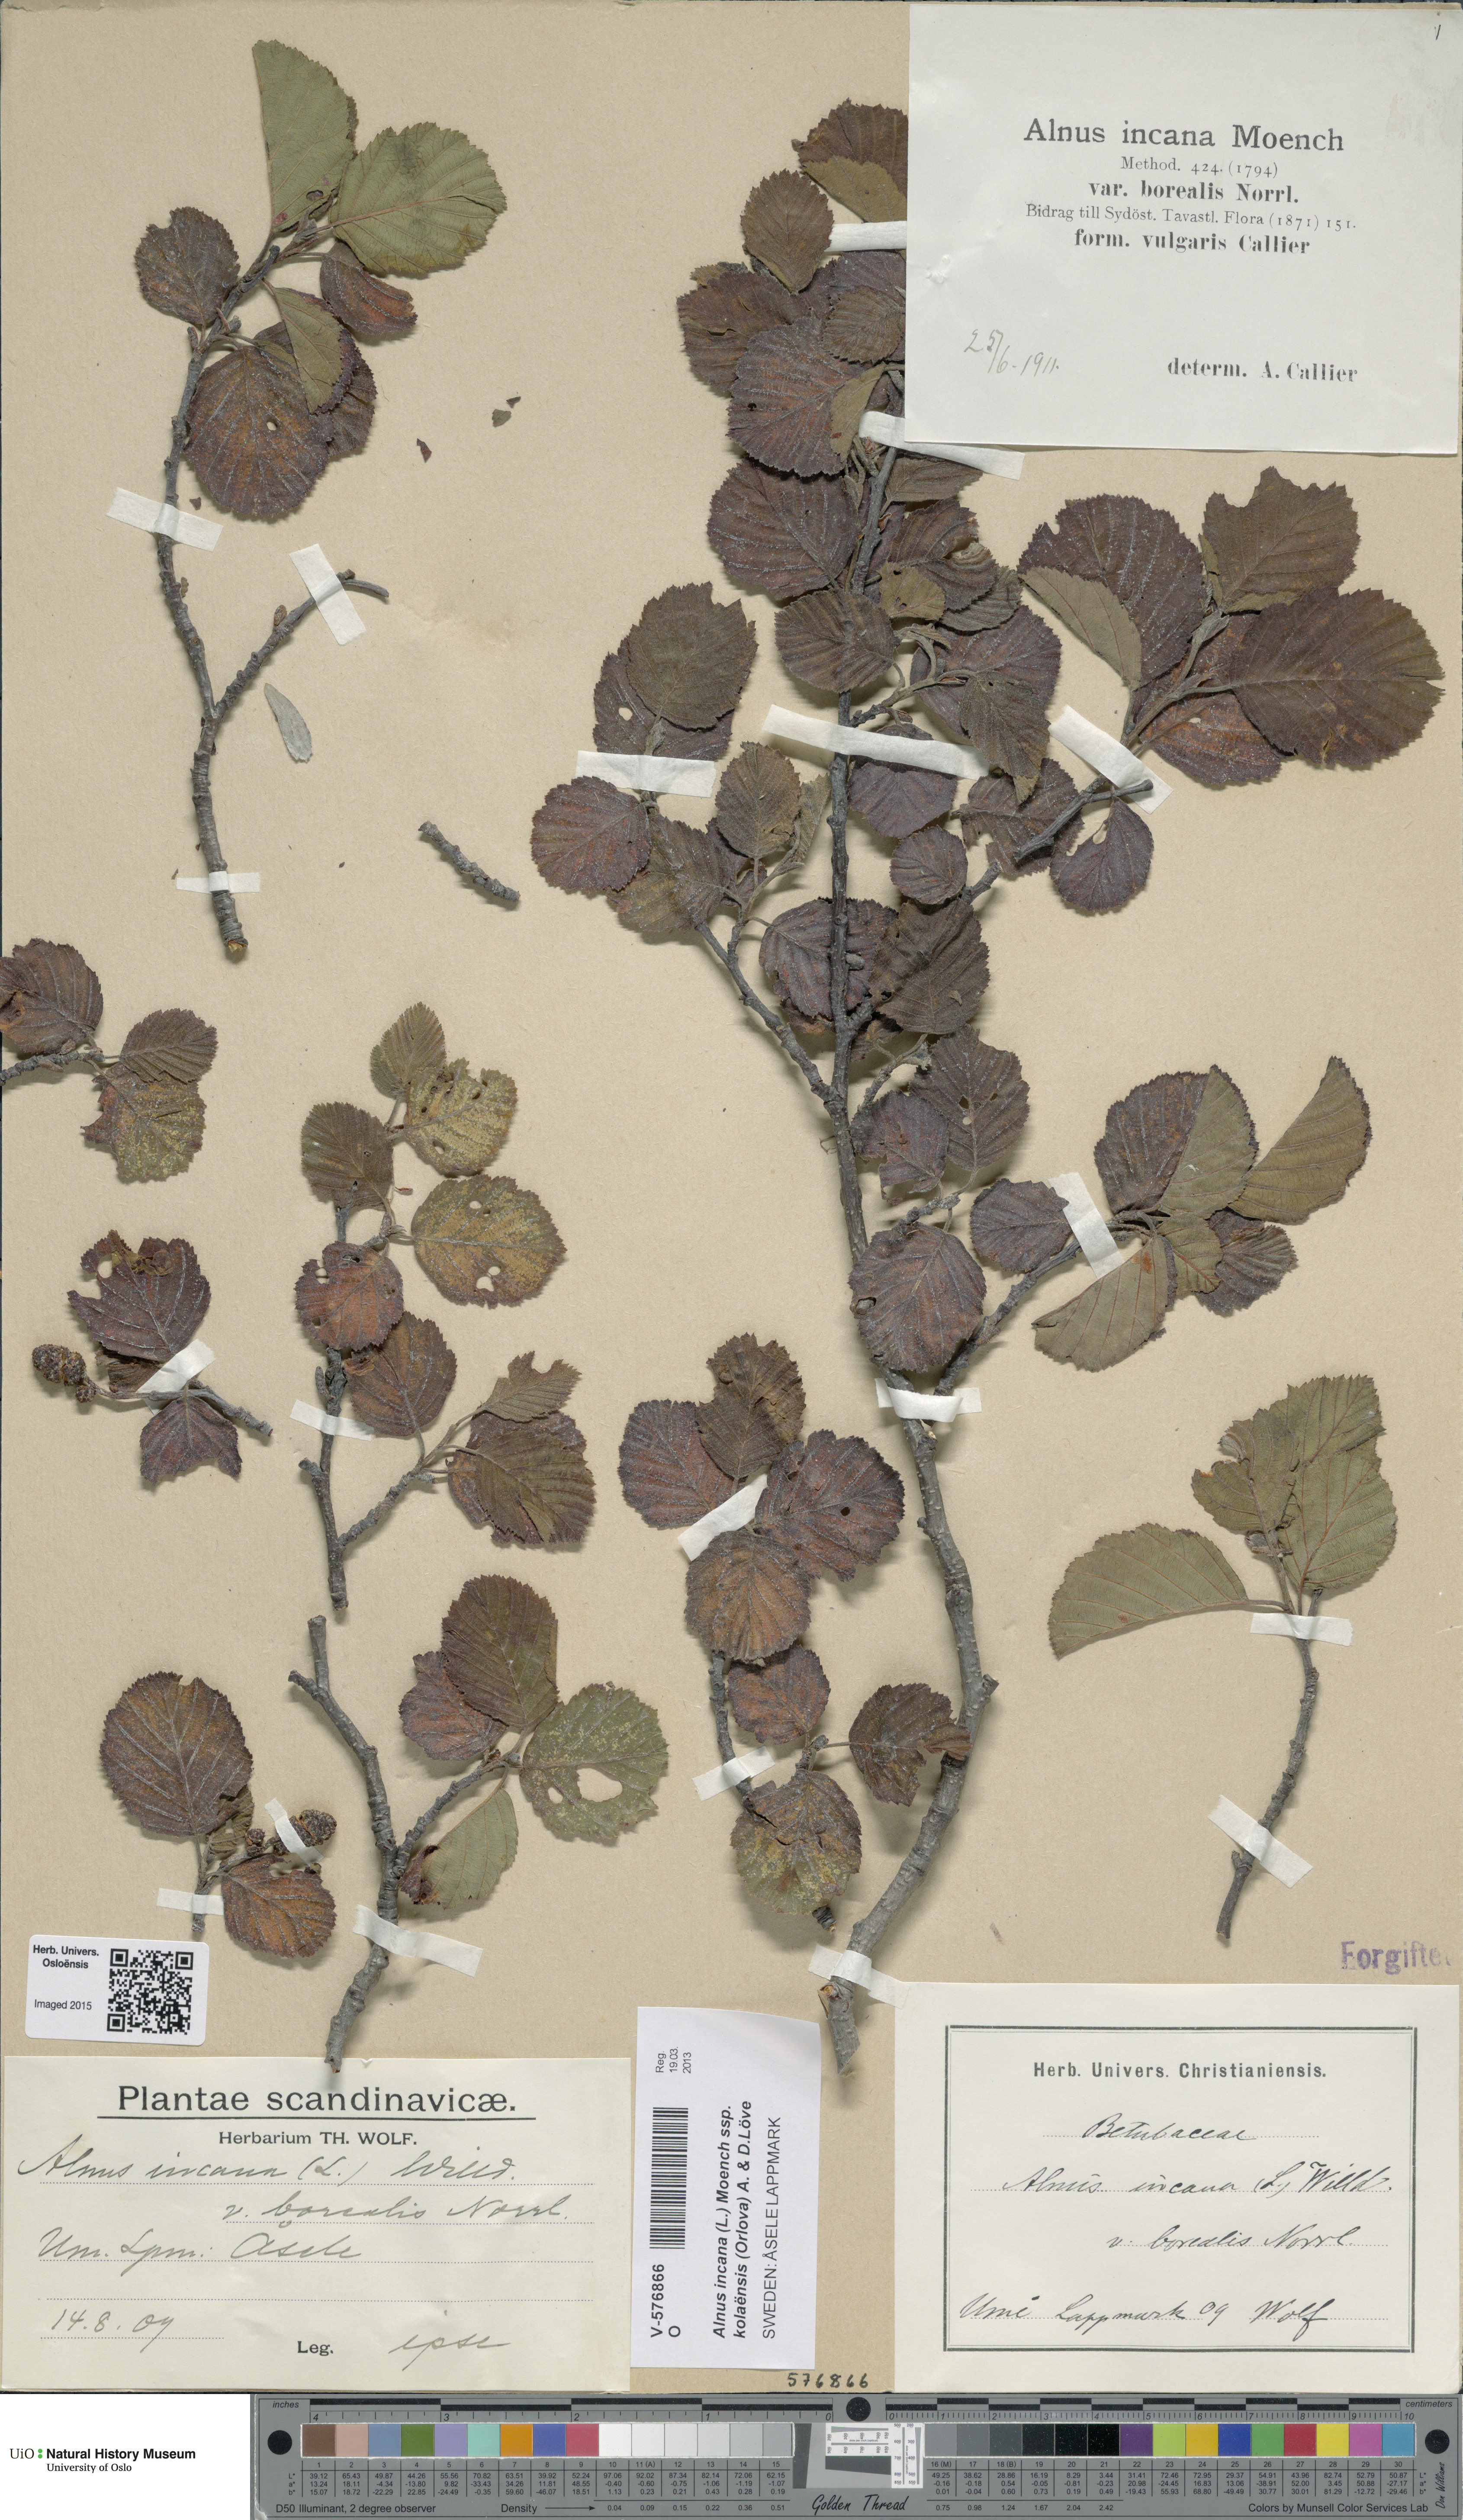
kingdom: Plantae
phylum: Tracheophyta
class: Magnoliopsida
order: Fagales
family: Betulaceae
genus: Alnus
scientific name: Alnus incana
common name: Grey alder
